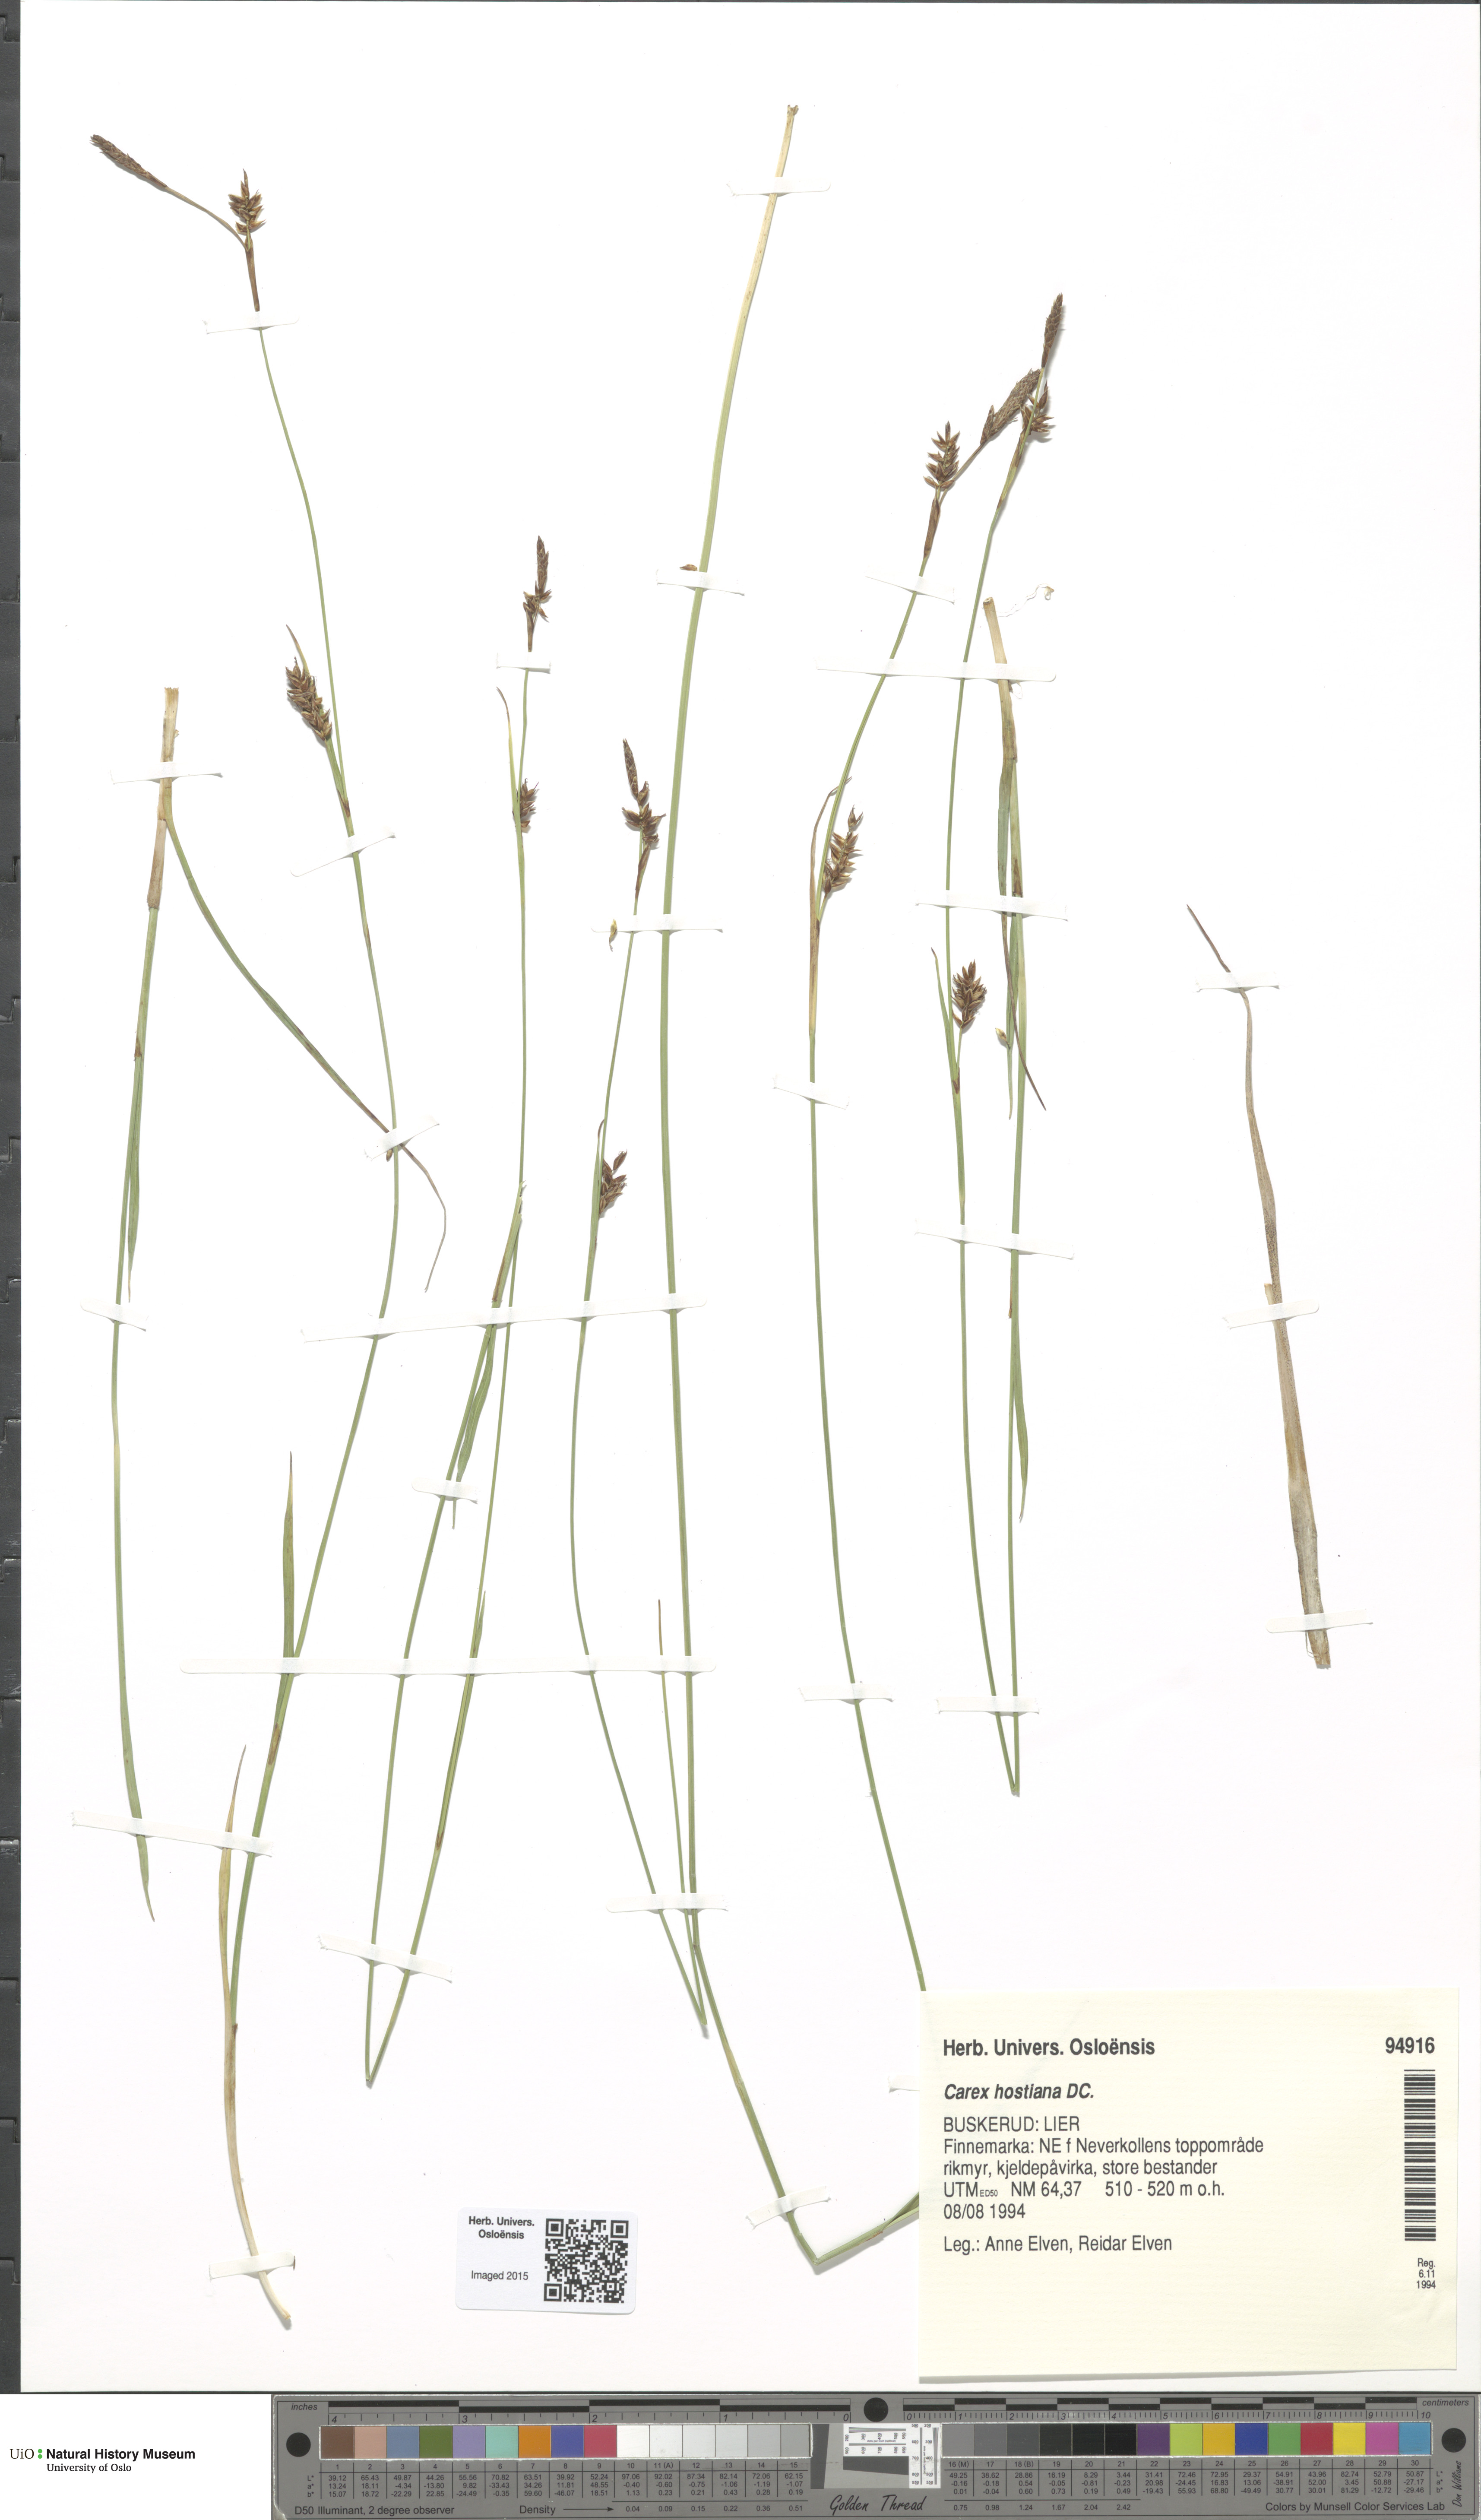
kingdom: Plantae
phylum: Tracheophyta
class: Liliopsida
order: Poales
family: Cyperaceae
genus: Carex
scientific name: Carex hostiana
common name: Tawny sedge
